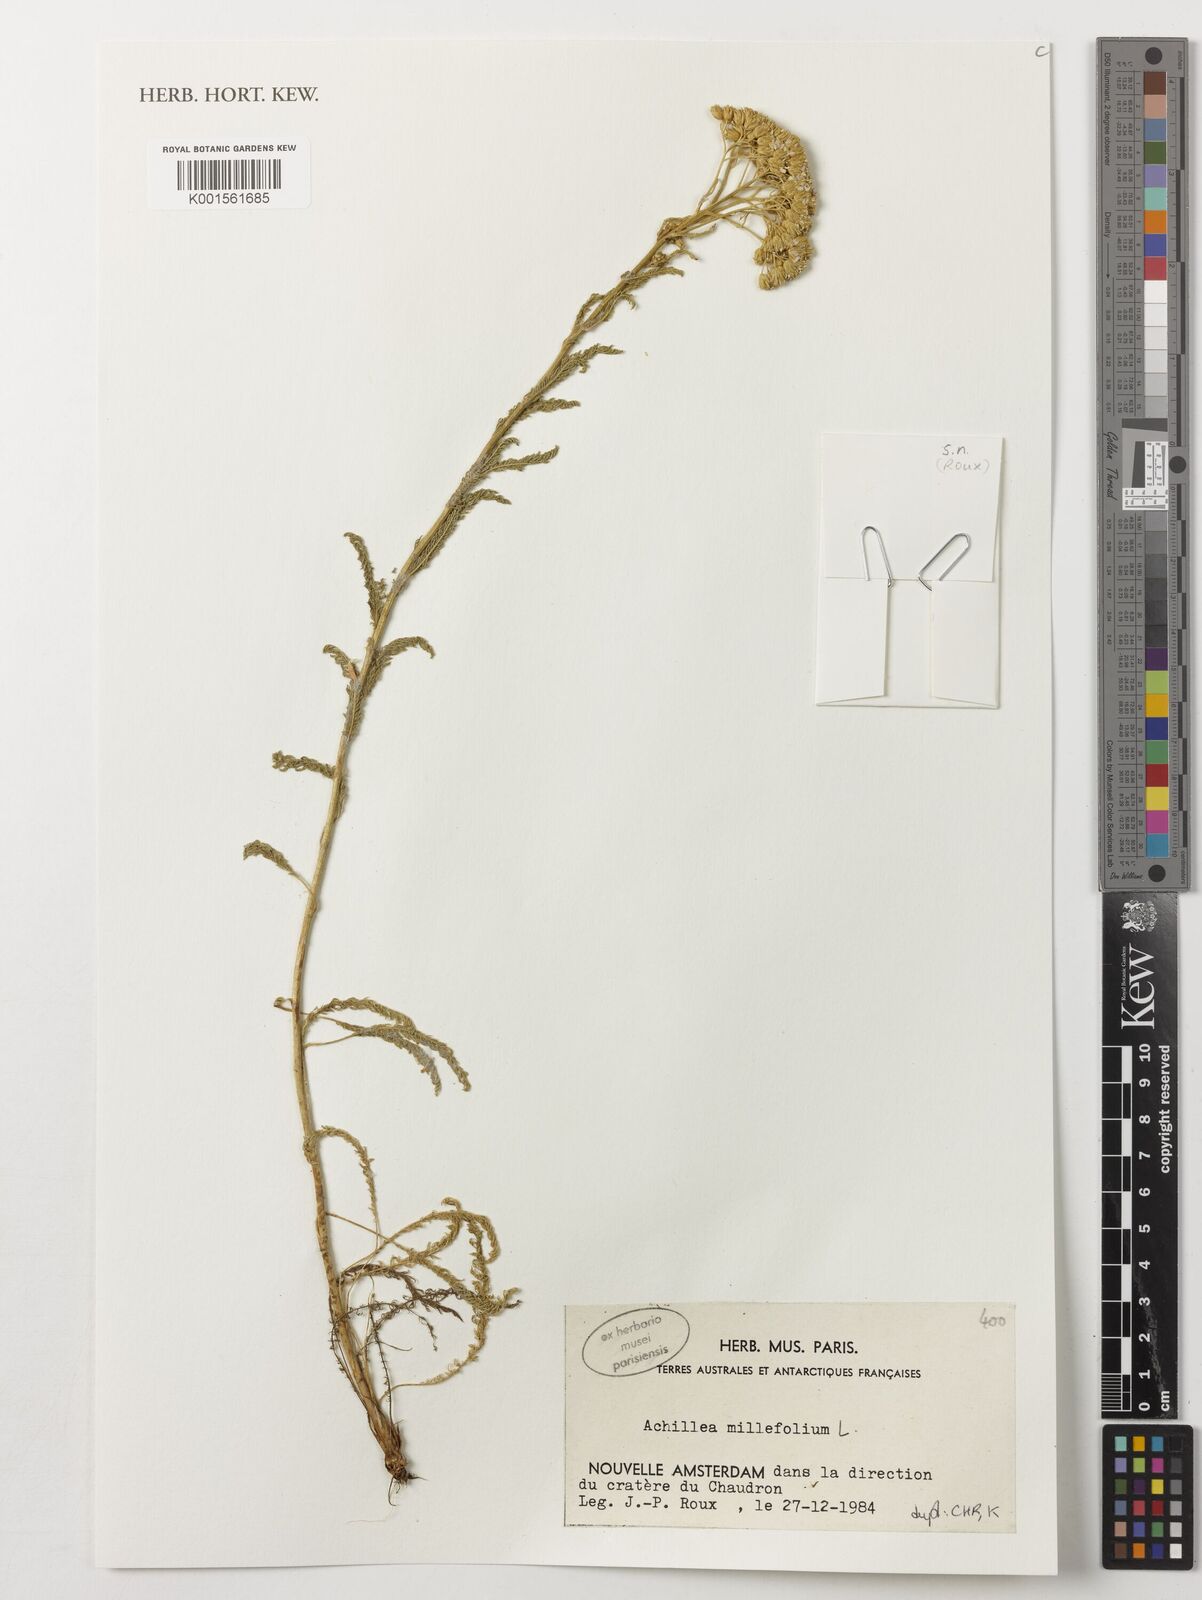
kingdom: Plantae
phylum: Tracheophyta
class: Magnoliopsida
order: Asterales
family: Asteraceae
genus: Achillea
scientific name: Achillea millefolium
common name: Yarrow
